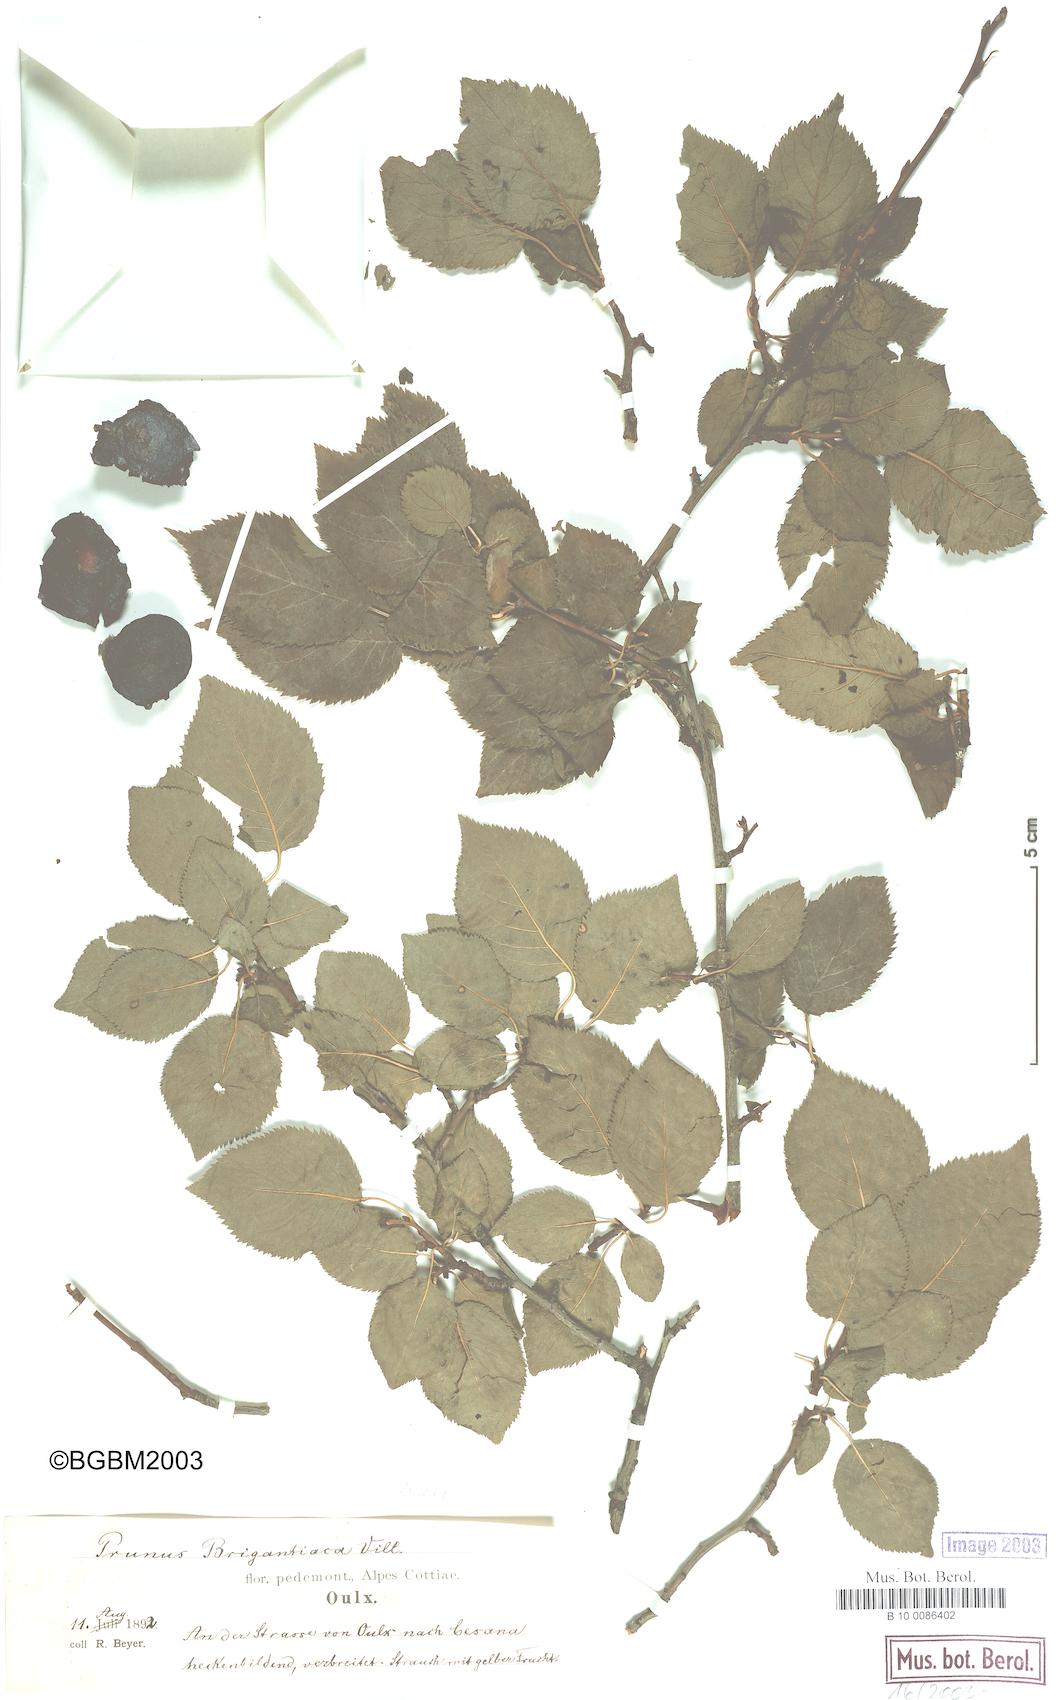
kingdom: Plantae
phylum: Tracheophyta
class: Magnoliopsida
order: Rosales
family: Rosaceae
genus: Prunus
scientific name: Prunus brigantina
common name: Briançon apricot
